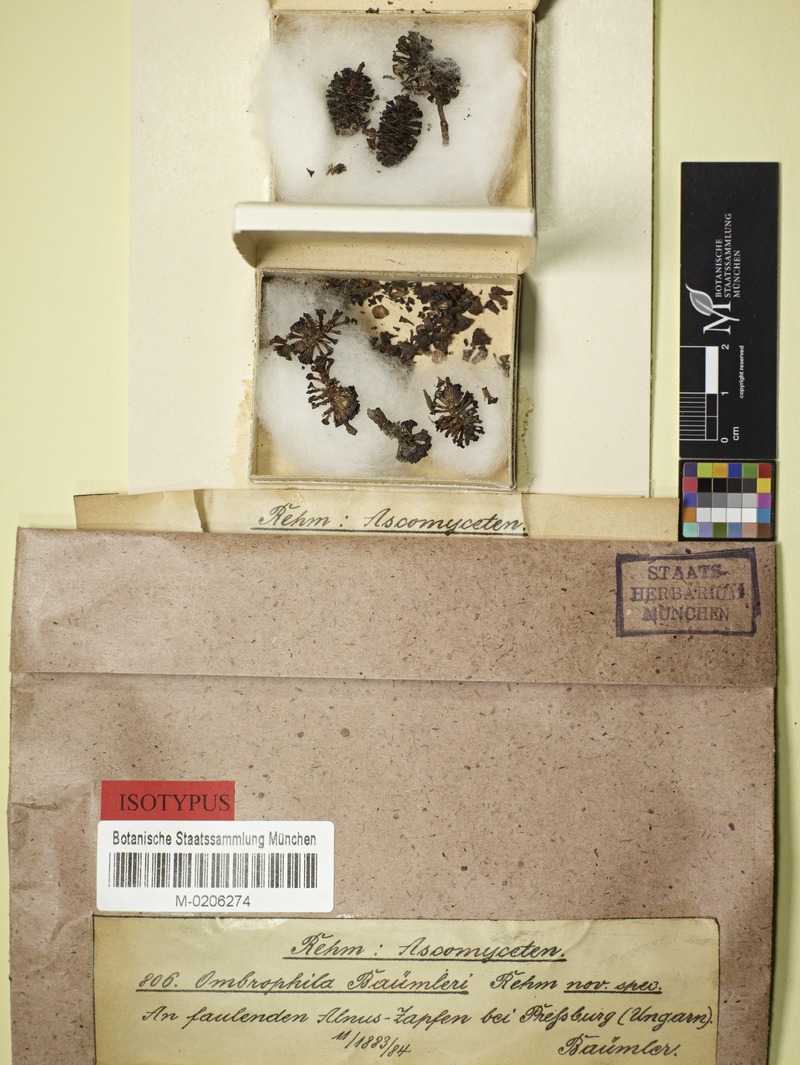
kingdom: Fungi
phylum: Ascomycota
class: Leotiomycetes
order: Helotiales
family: Sclerotiniaceae
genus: Ciboria
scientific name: Ciboria viridifusca
